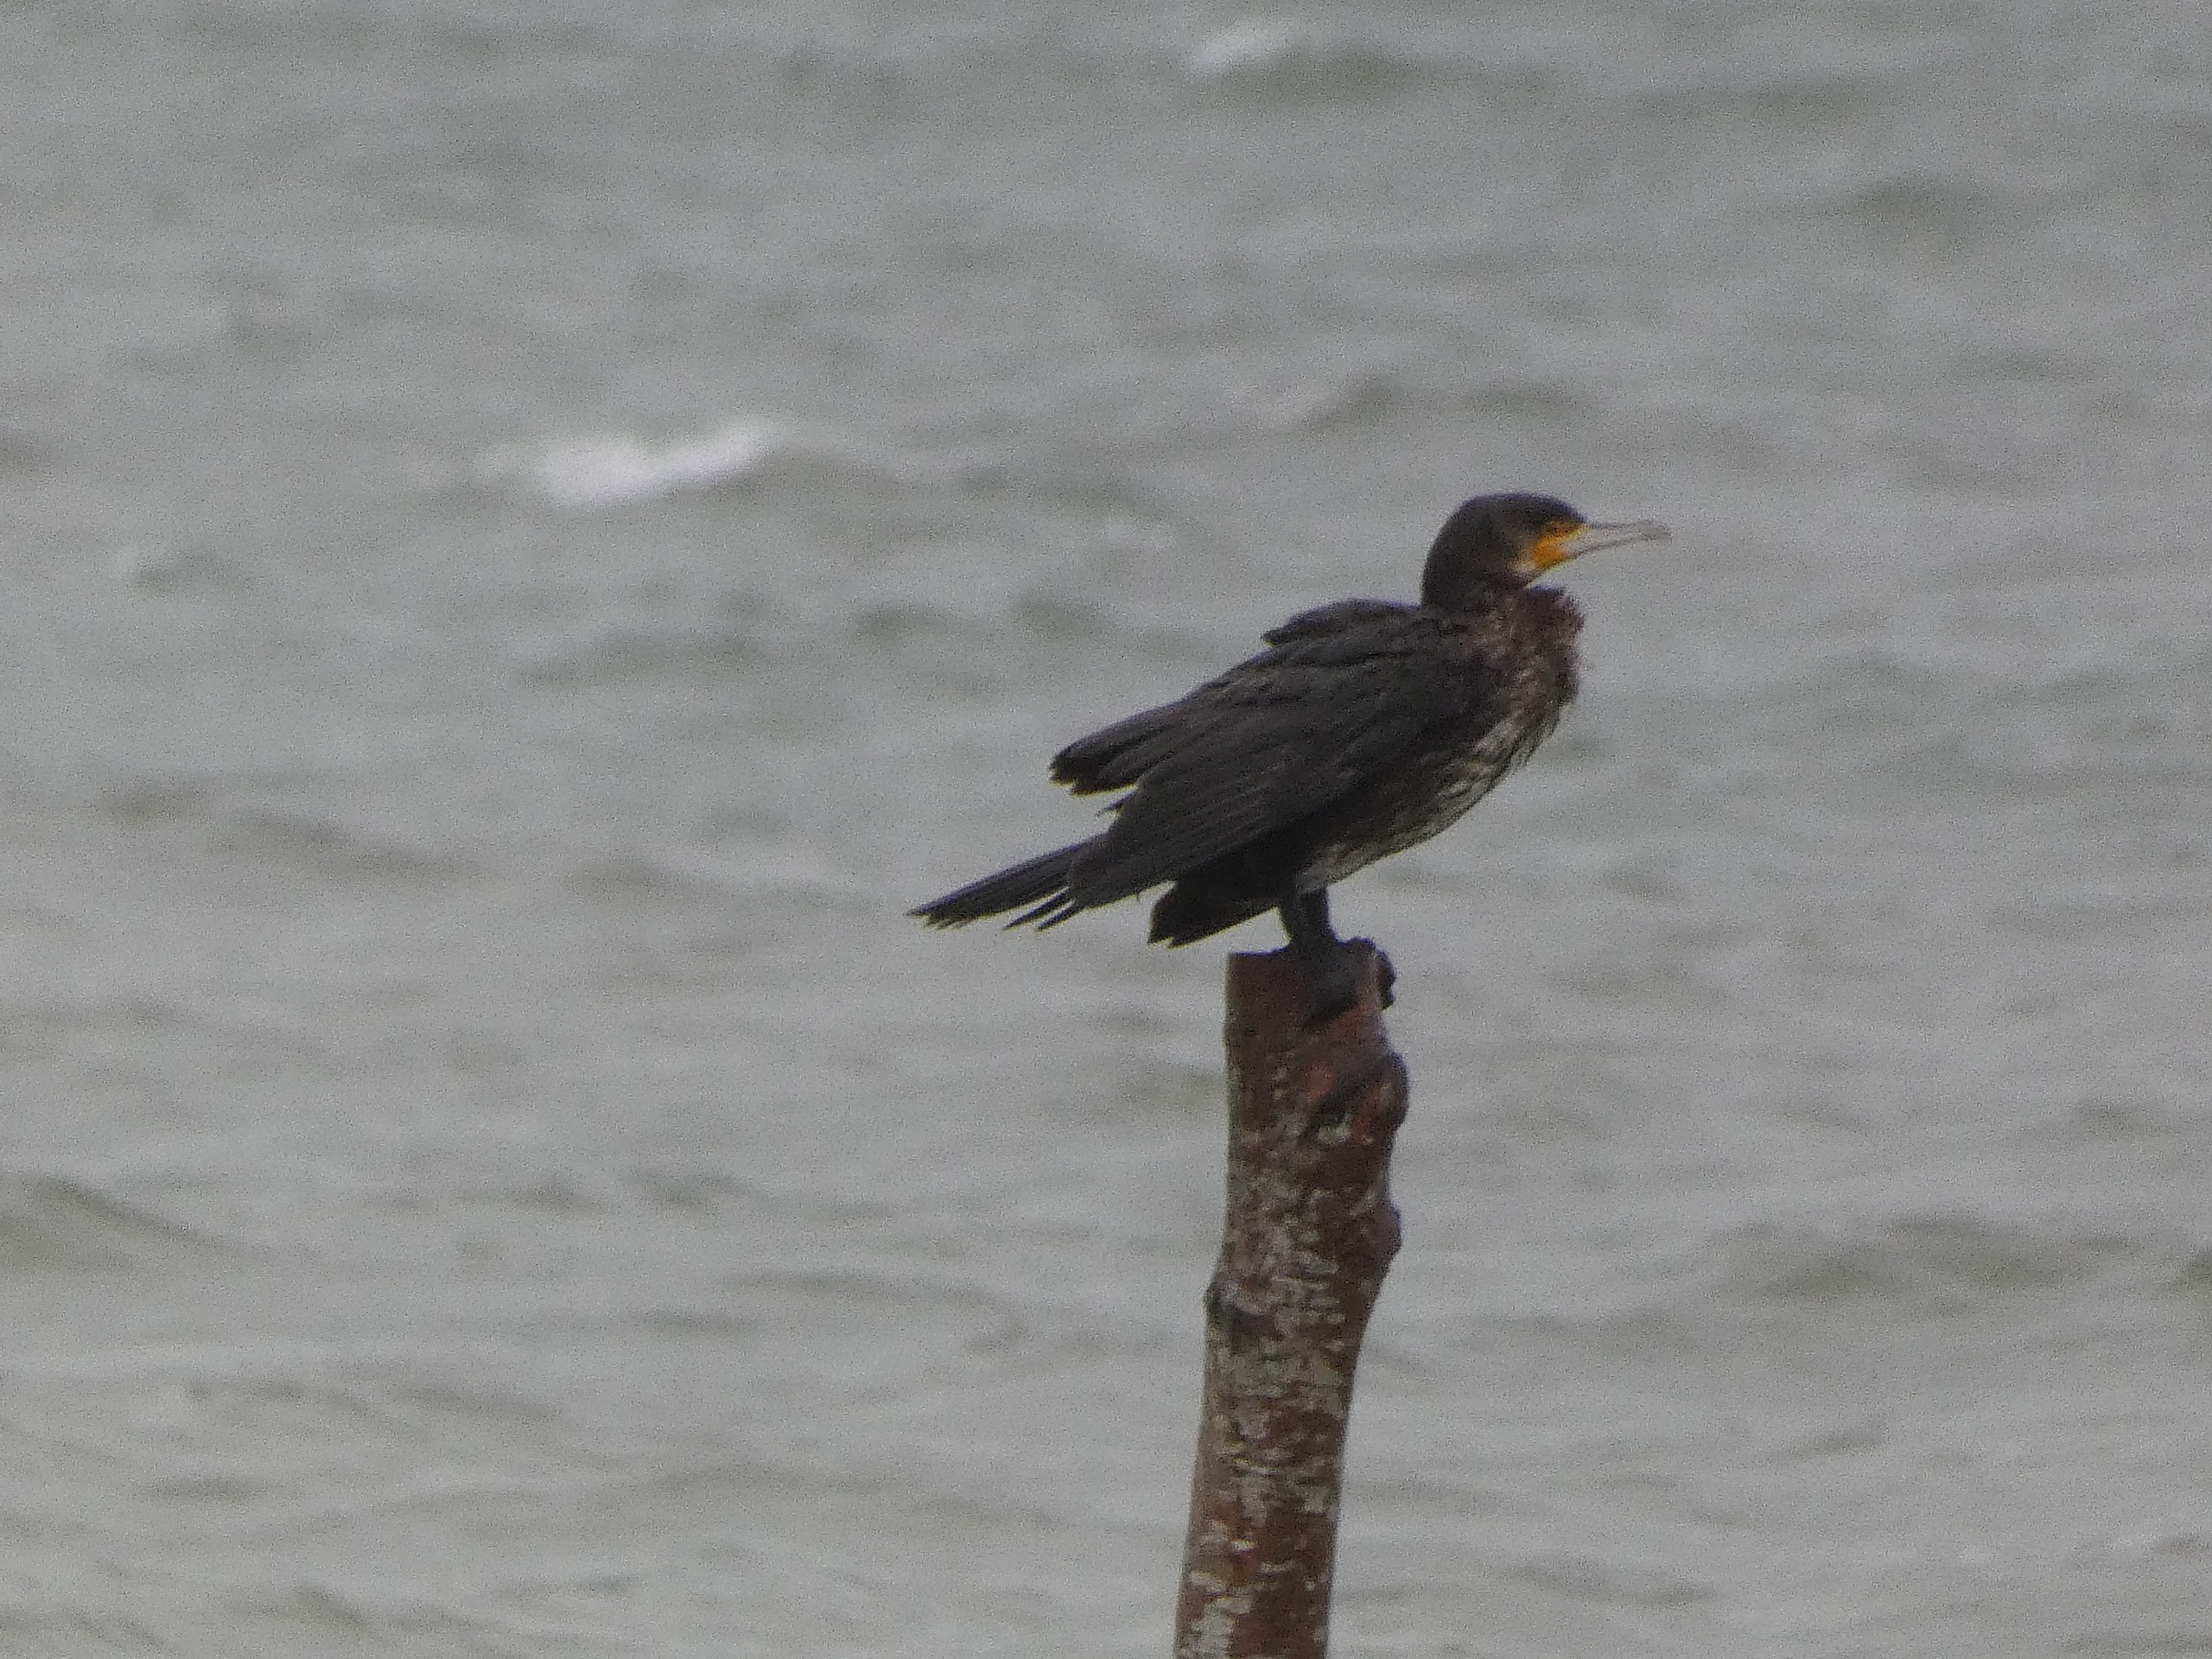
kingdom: Animalia
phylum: Chordata
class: Aves
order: Suliformes
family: Phalacrocoracidae
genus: Phalacrocorax
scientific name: Phalacrocorax carbo
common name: Skarv
